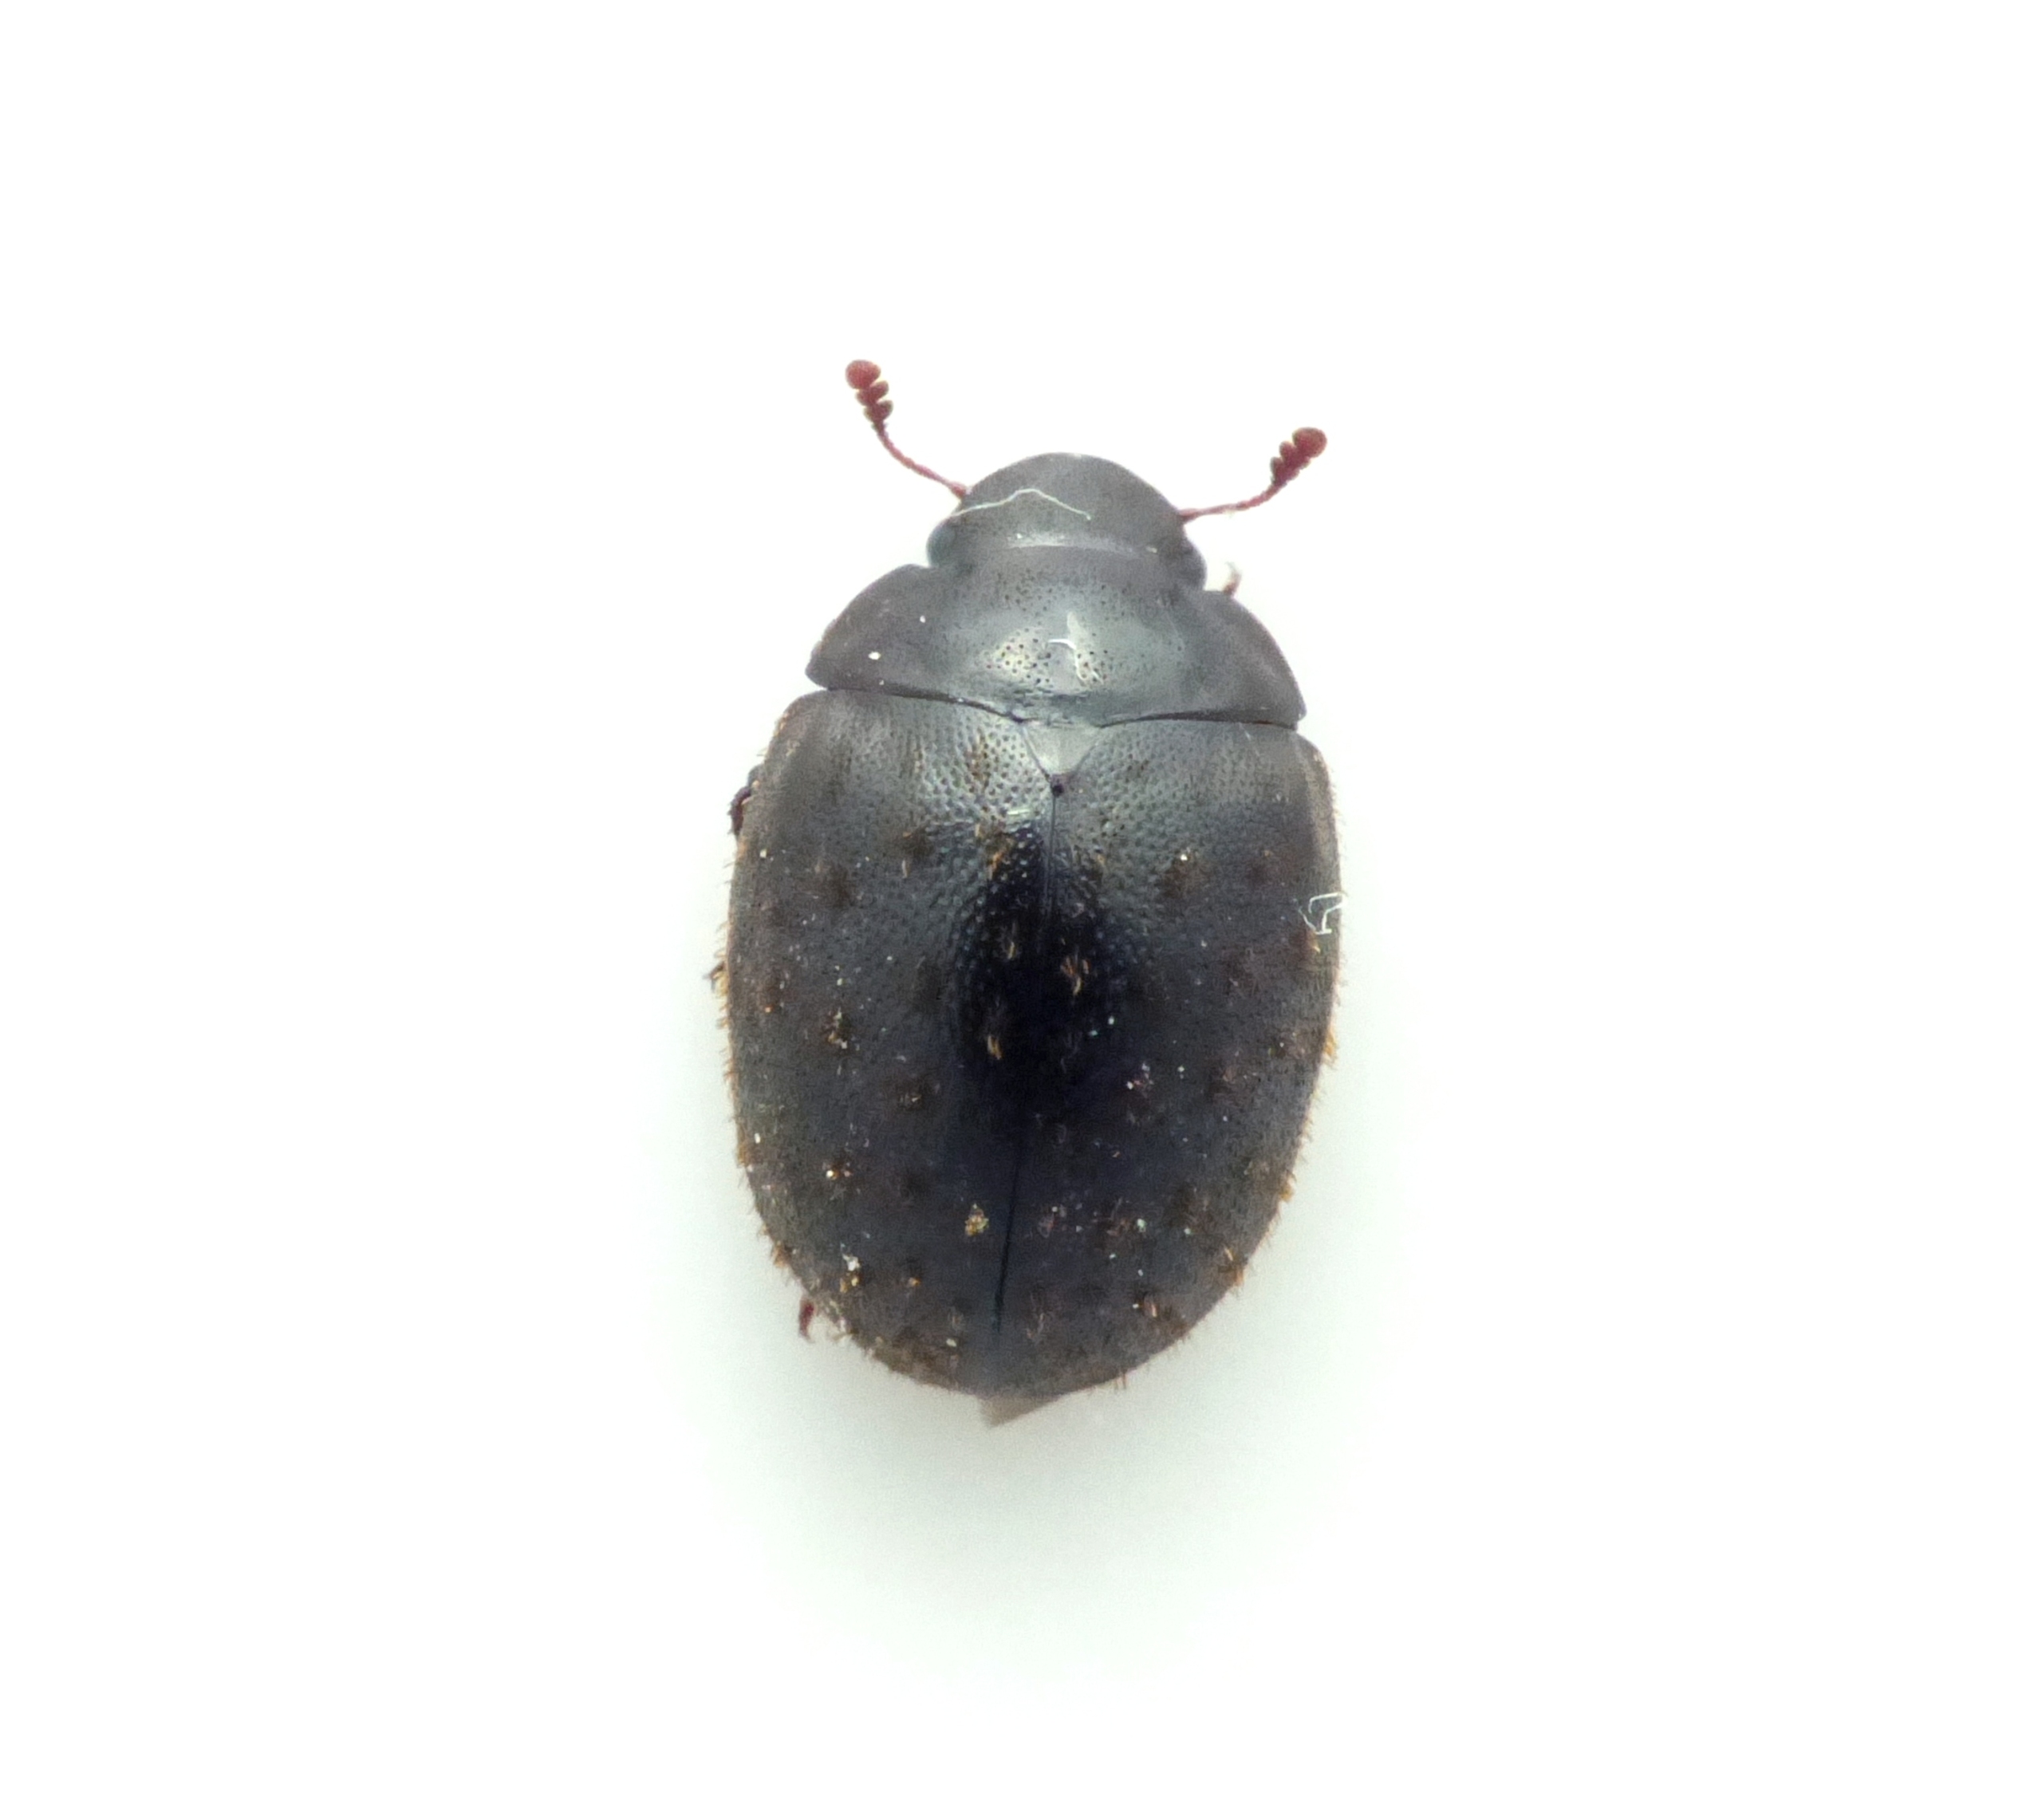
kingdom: Animalia
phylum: Arthropoda
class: Insecta
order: Coleoptera
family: Nosodendridae
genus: Nosodendron
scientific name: Nosodendron fasciculare
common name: Elmesaftbille
